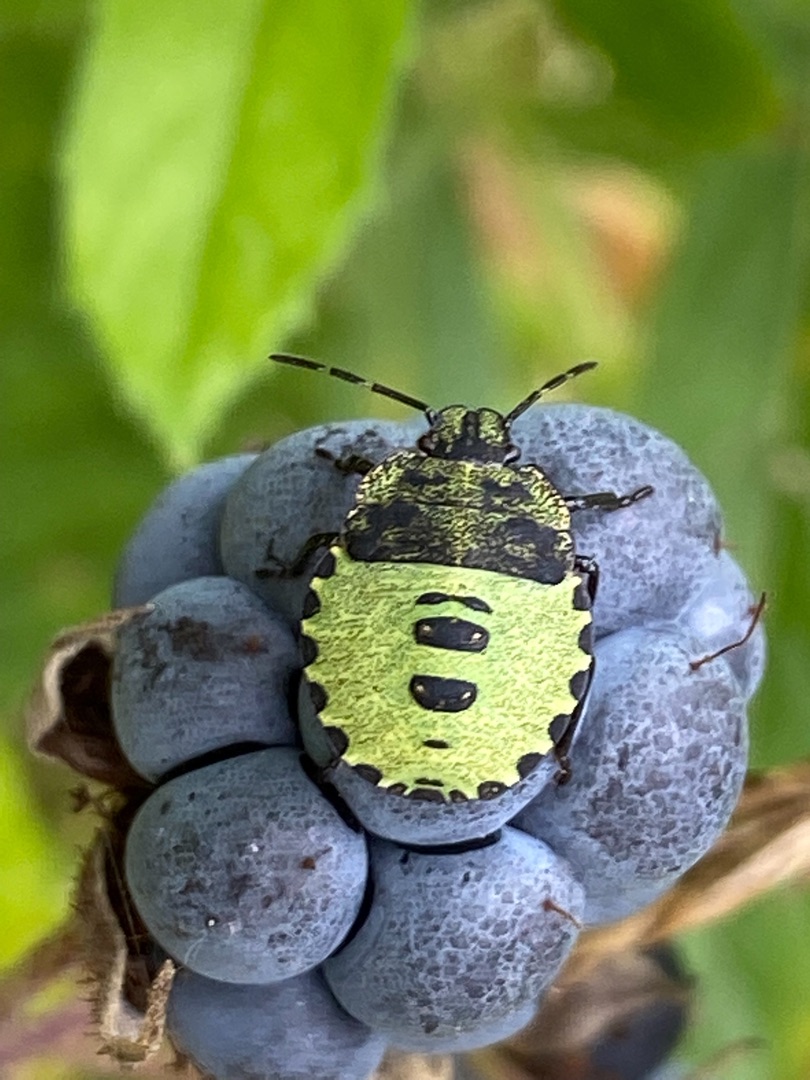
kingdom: Animalia
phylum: Arthropoda
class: Insecta
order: Hemiptera
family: Pentatomidae
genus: Palomena
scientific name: Palomena prasina
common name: Grøn bredtæge
